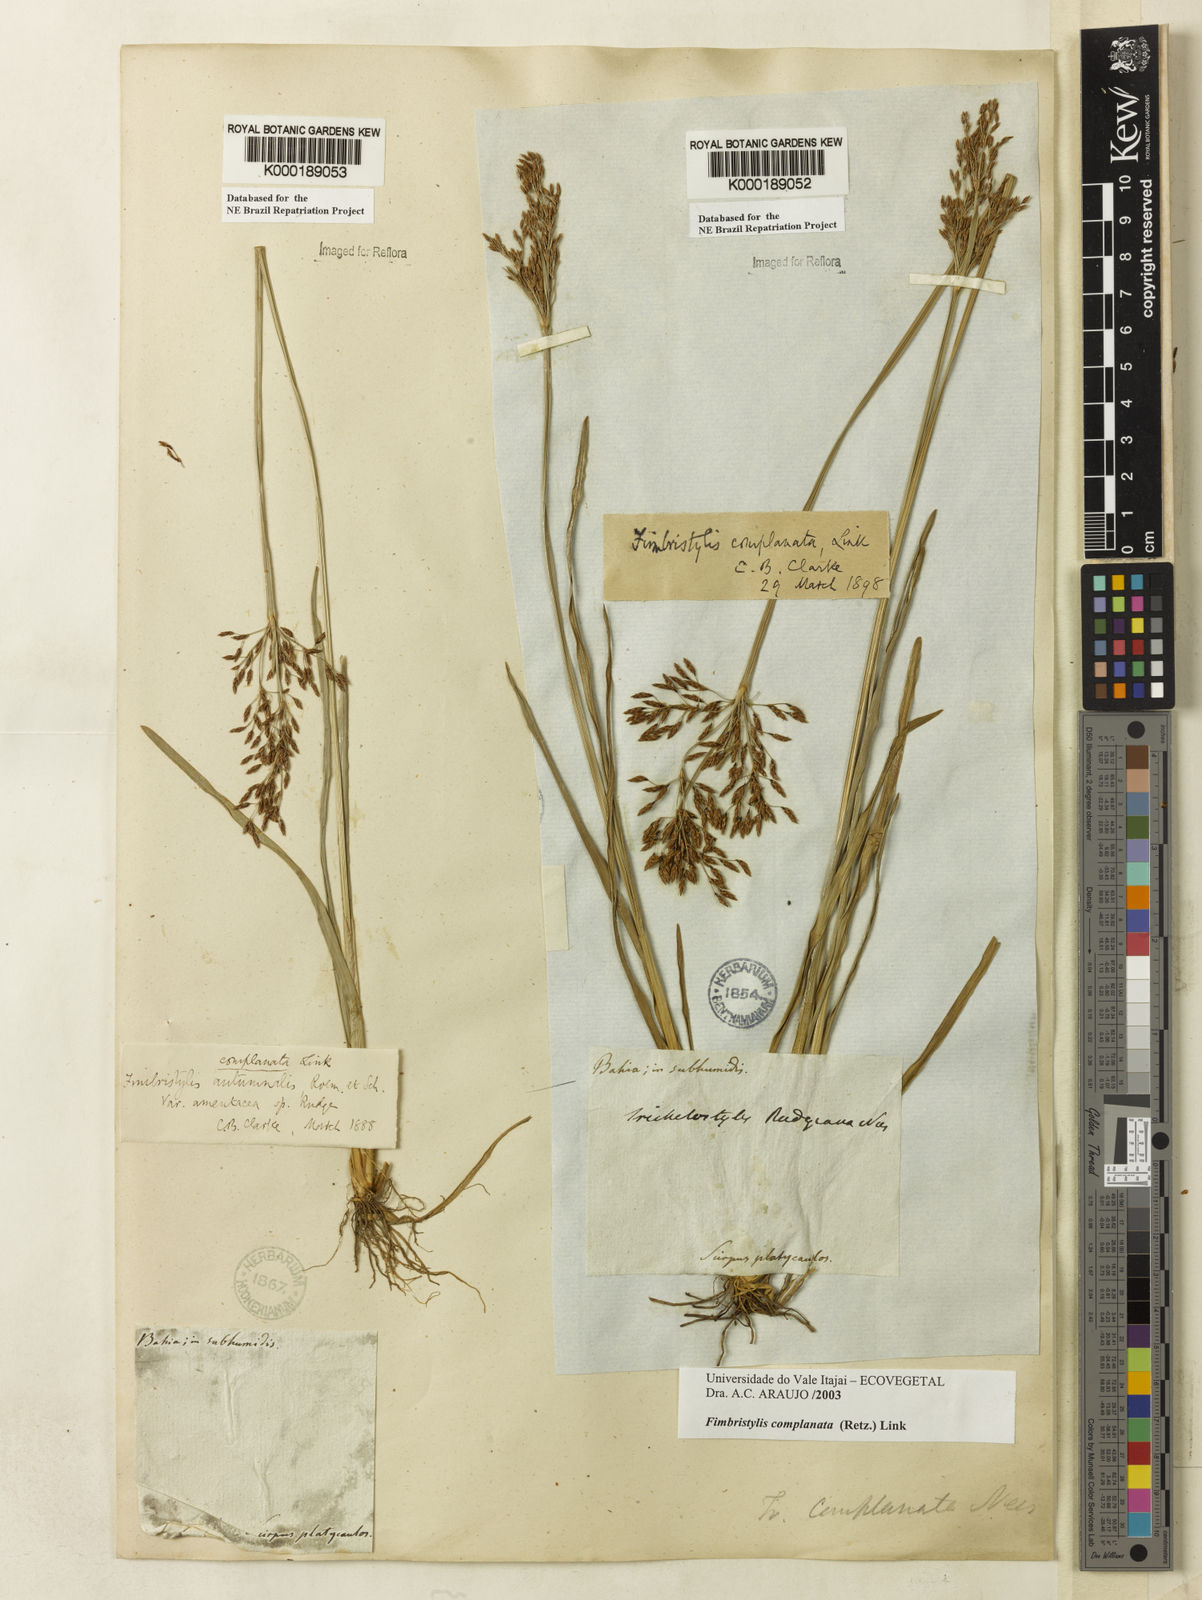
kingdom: Plantae
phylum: Tracheophyta
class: Liliopsida
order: Poales
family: Cyperaceae
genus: Fimbristylis
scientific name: Fimbristylis complanata
